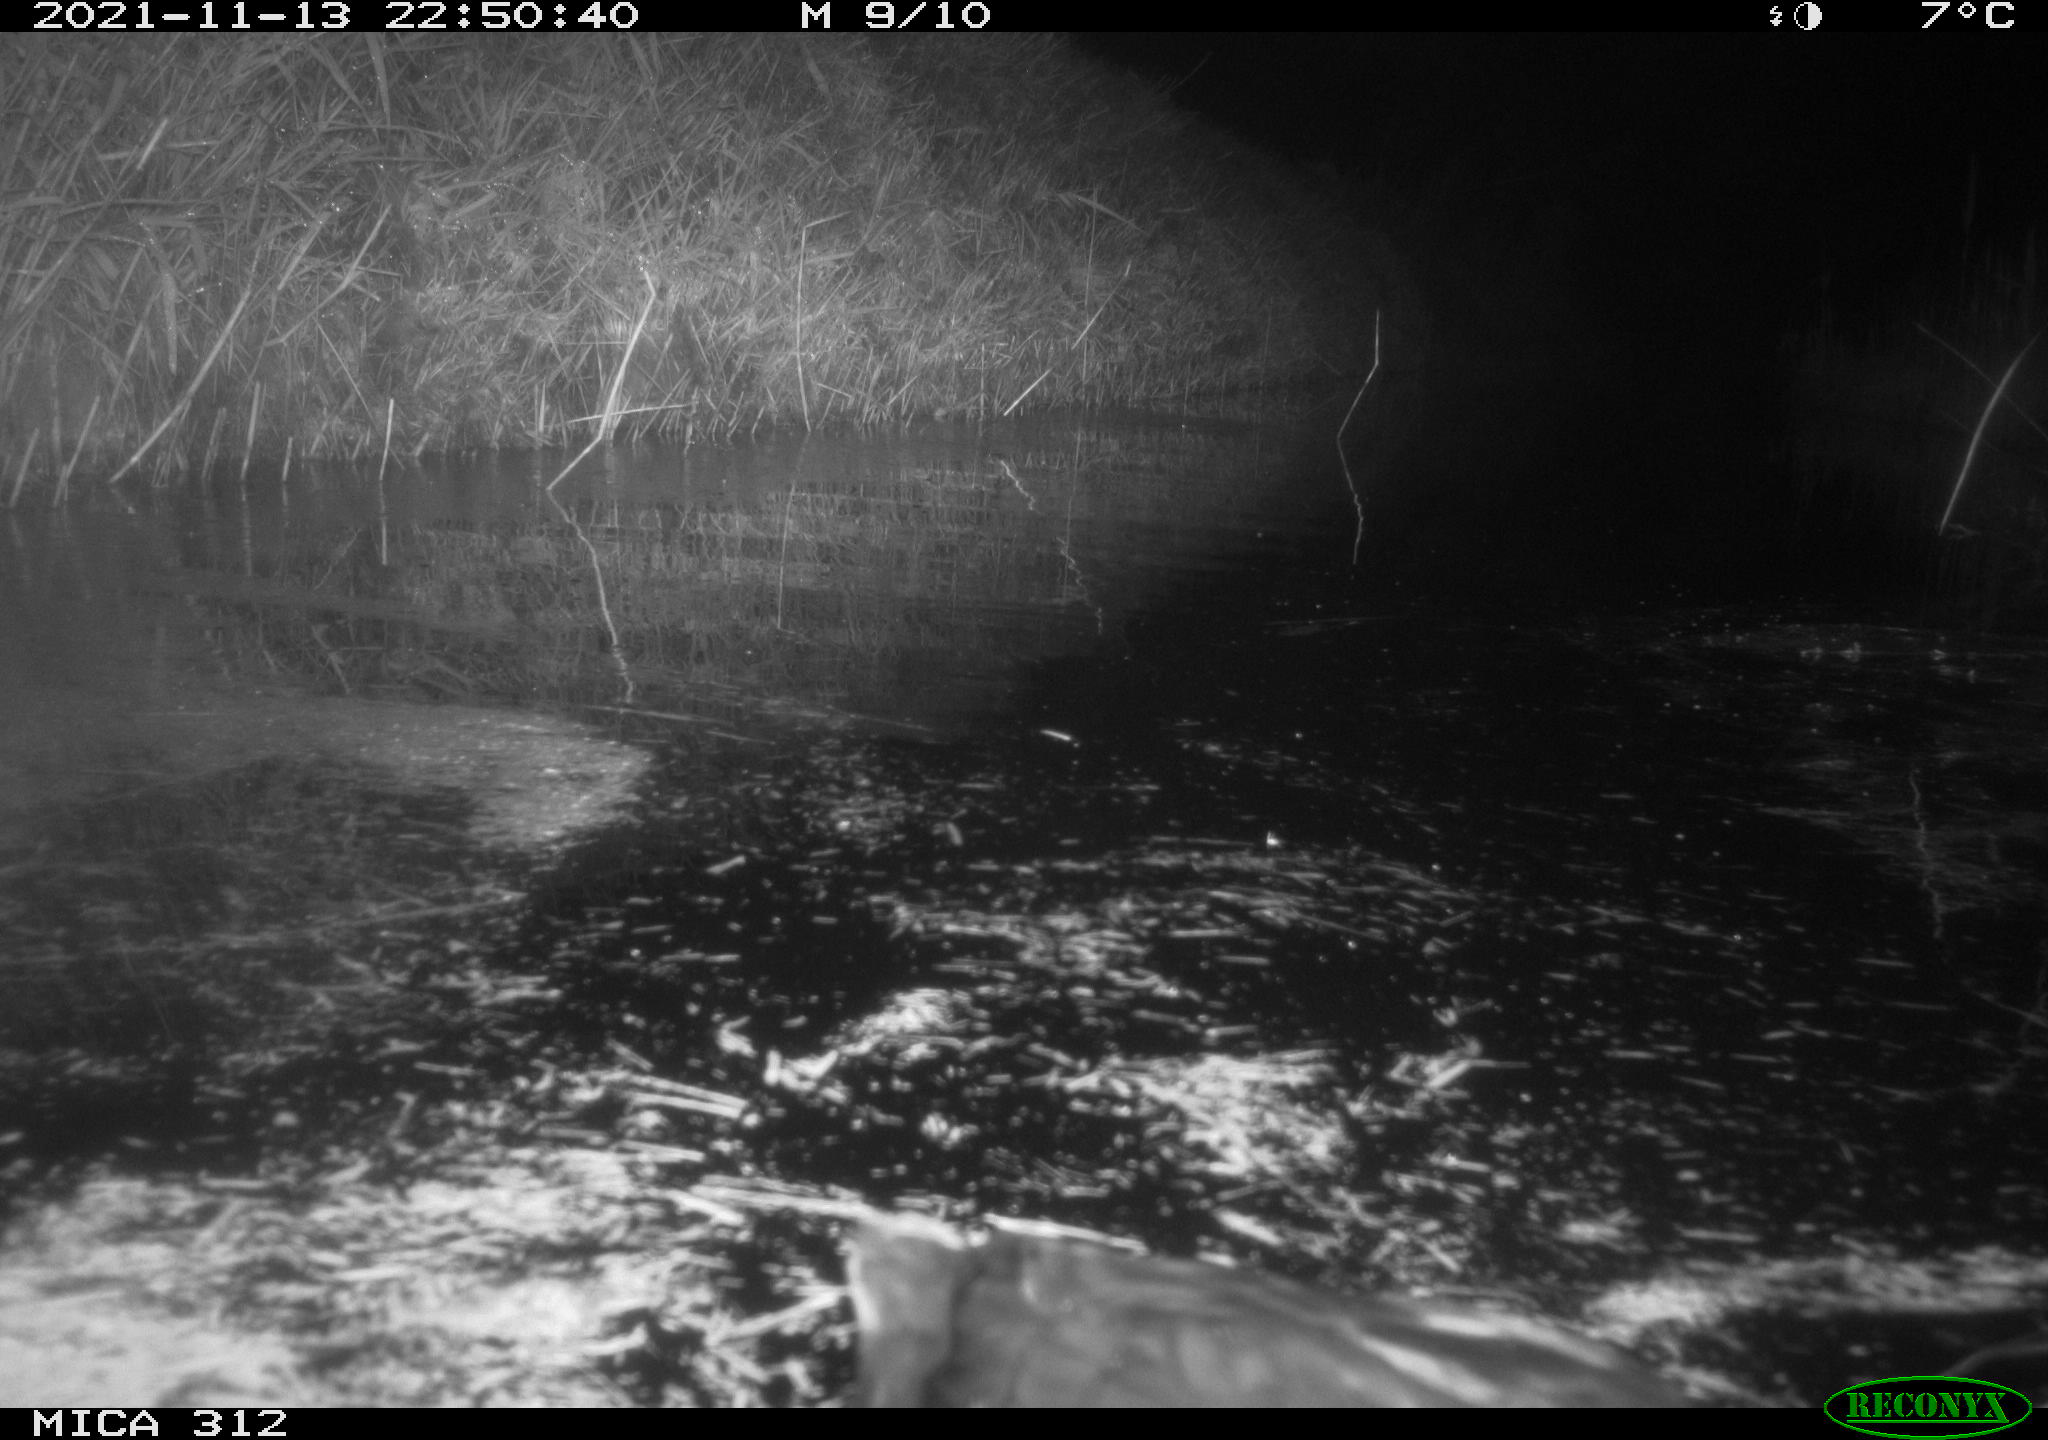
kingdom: Animalia
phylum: Chordata
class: Aves
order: Anseriformes
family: Anatidae
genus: Anas
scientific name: Anas
